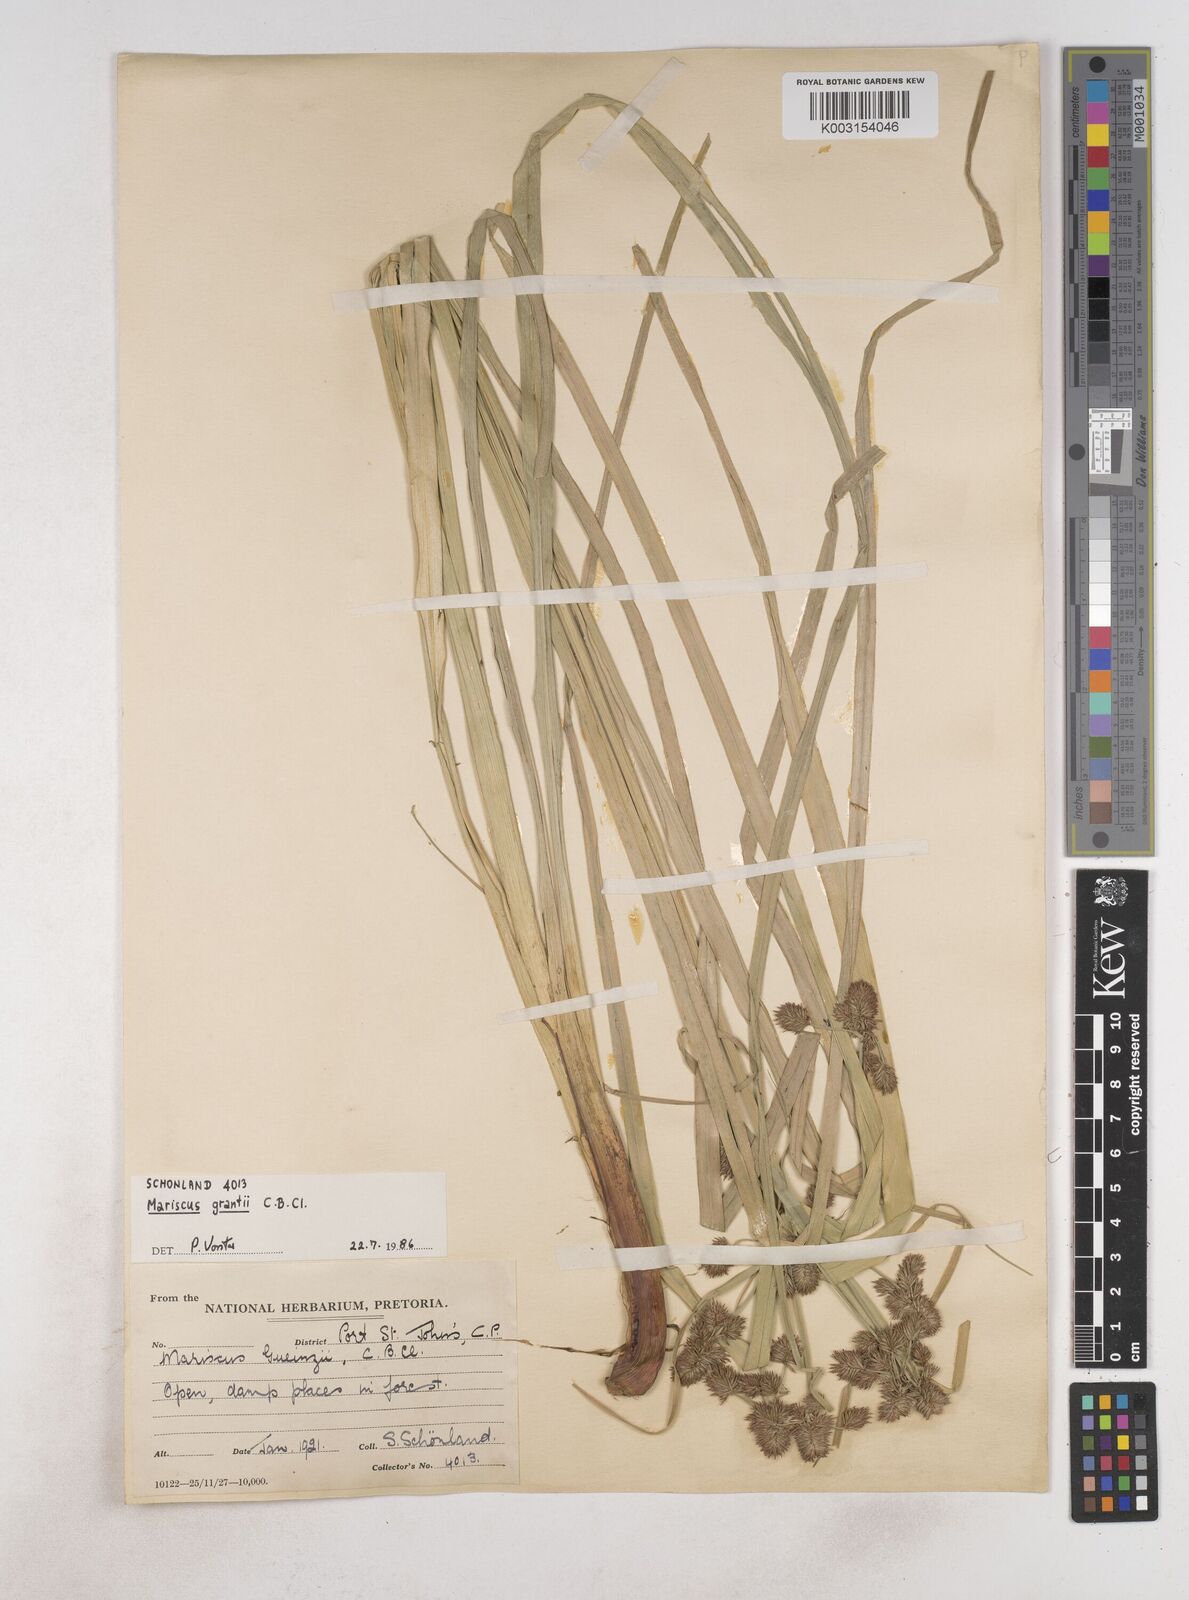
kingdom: Plantae
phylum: Tracheophyta
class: Liliopsida
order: Poales
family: Cyperaceae
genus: Cyperus
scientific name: Cyperus owanii
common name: Owan's flatsedge
